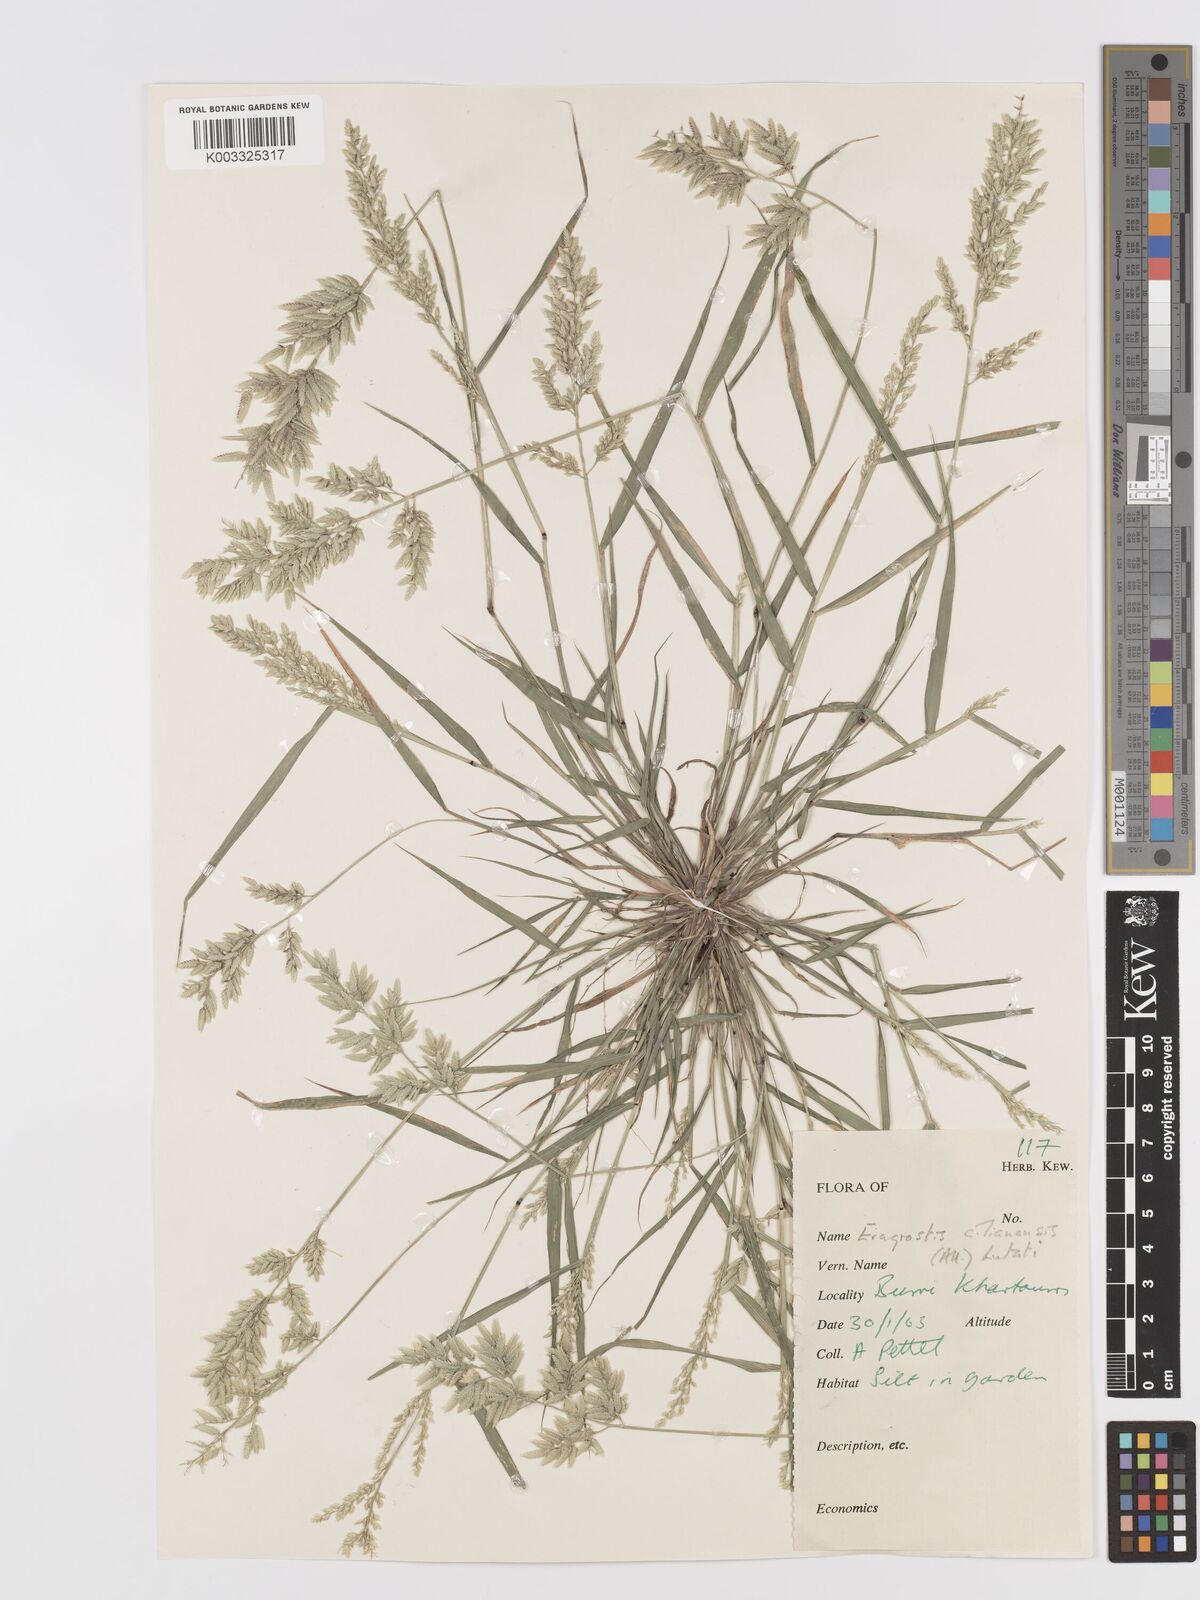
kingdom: Plantae
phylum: Tracheophyta
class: Liliopsida
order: Poales
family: Poaceae
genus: Eragrostis
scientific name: Eragrostis cilianensis
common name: Stinkgrass
